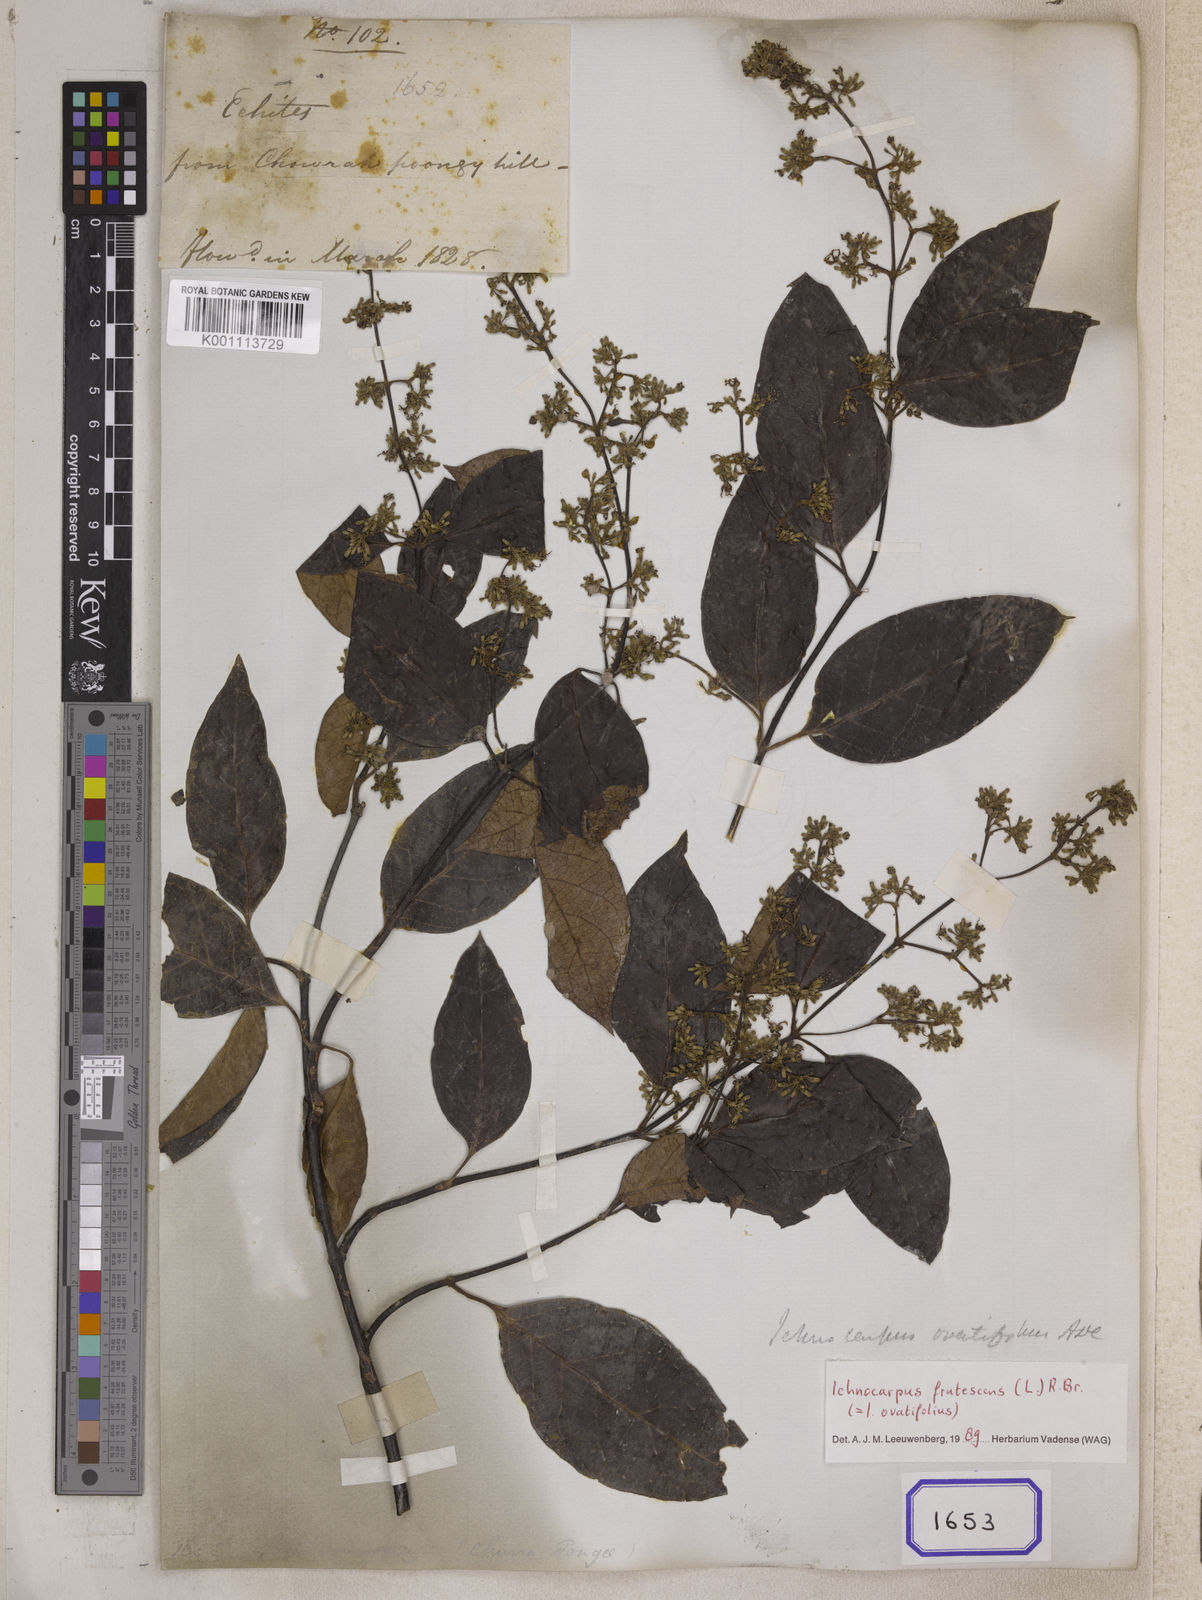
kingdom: Plantae
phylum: Tracheophyta
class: Magnoliopsida
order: Gentianales
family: Apocynaceae
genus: Aganosma
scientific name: Aganosma wallichii
